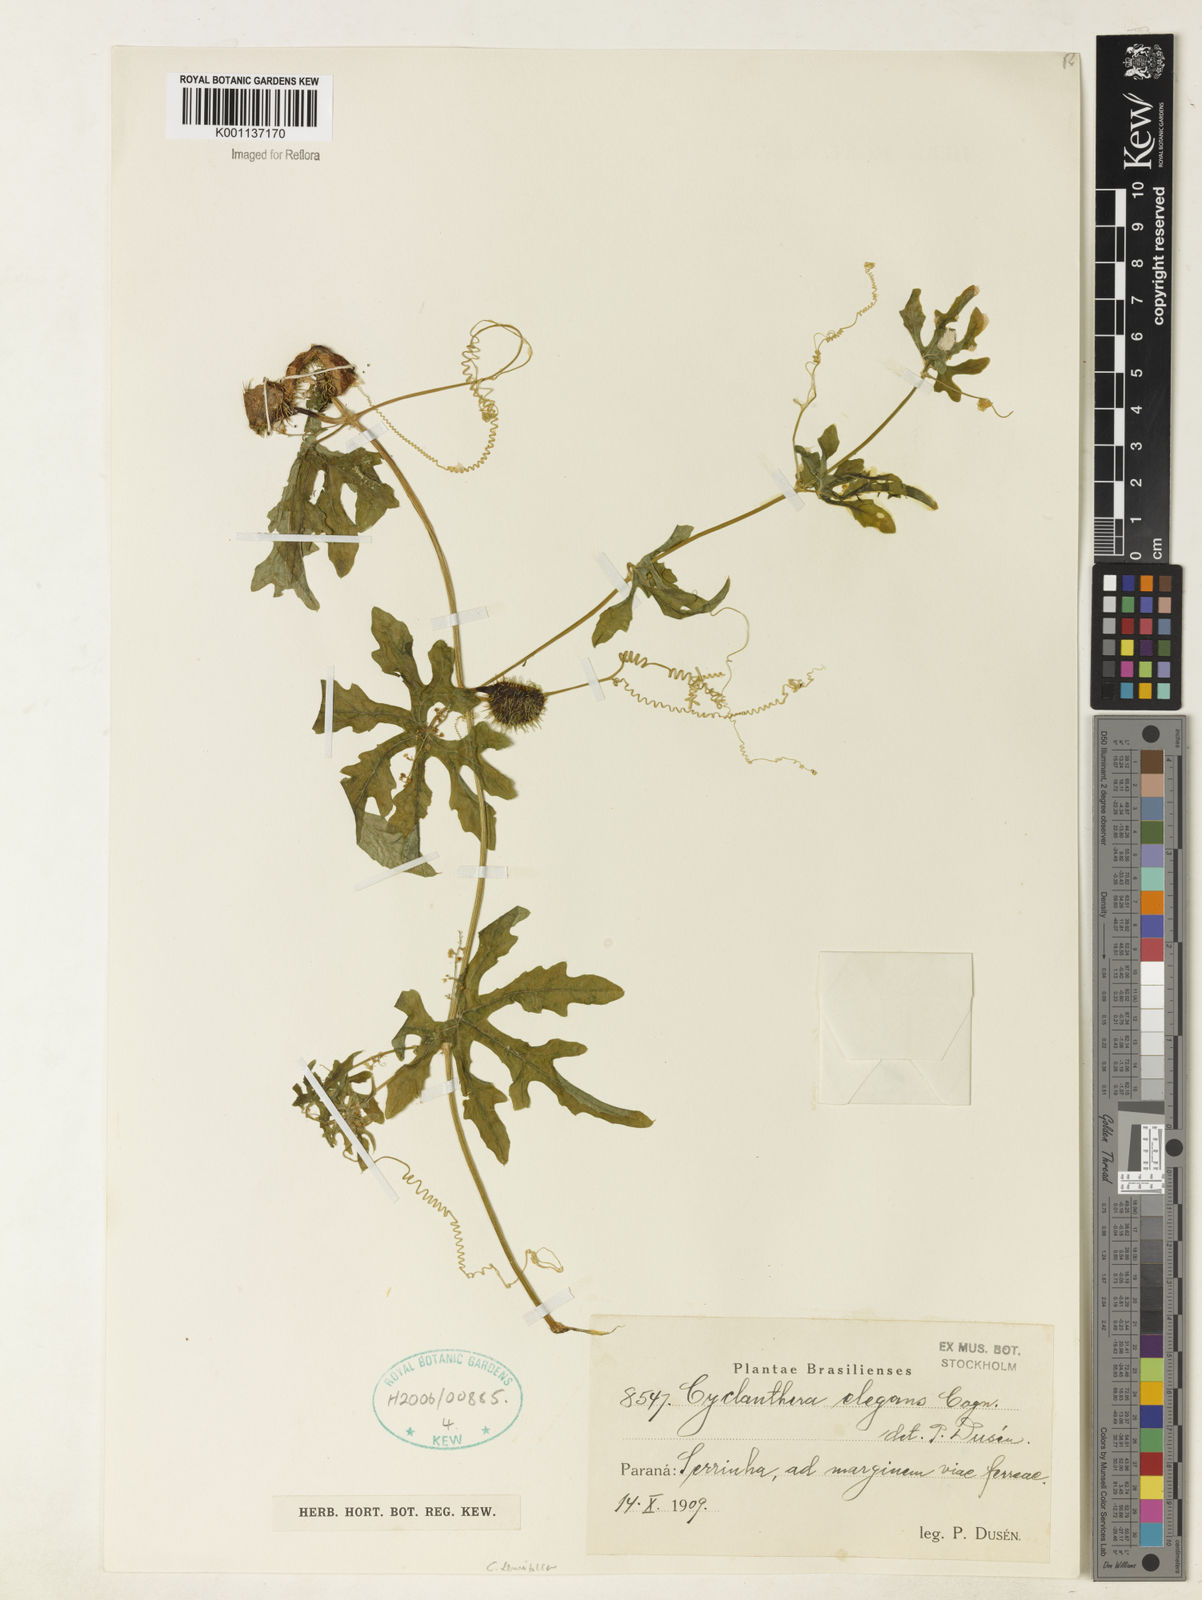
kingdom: Plantae
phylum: Tracheophyta
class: Magnoliopsida
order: Cucurbitales
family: Cucurbitaceae
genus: Cyclanthera
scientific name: Cyclanthera tenuisepala
